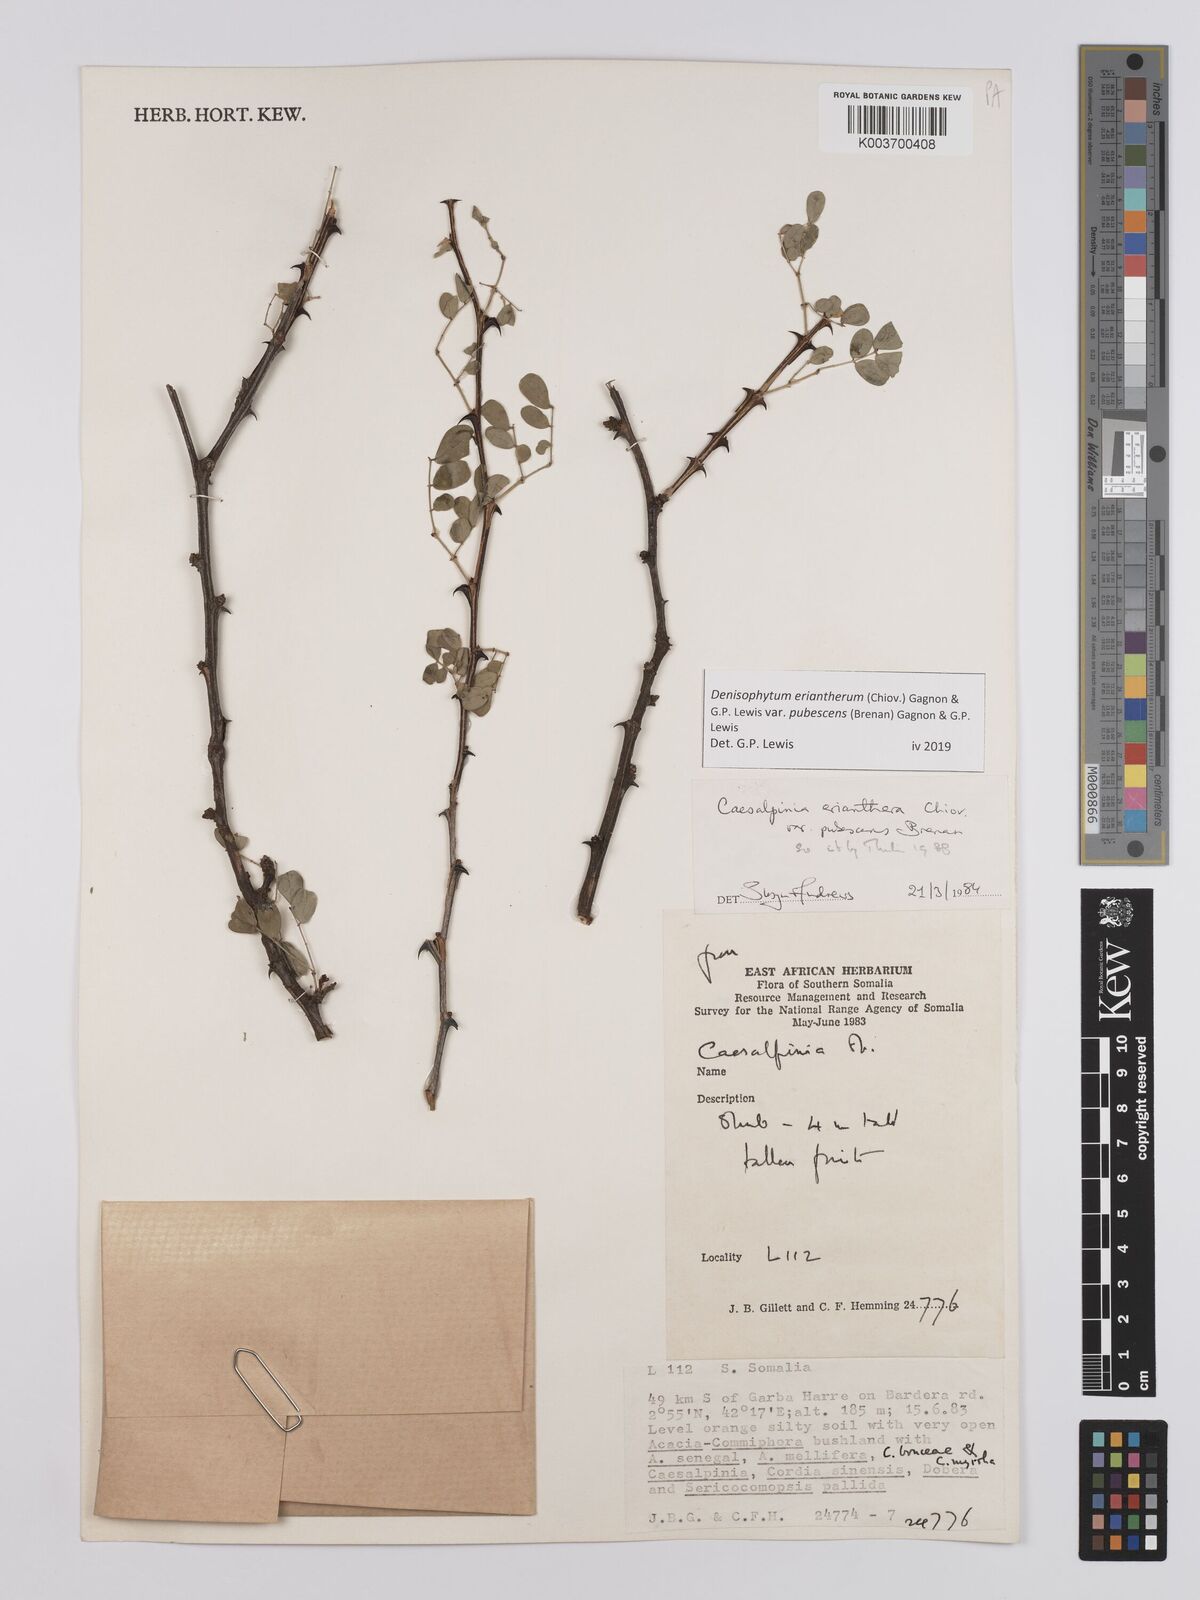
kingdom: Plantae
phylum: Tracheophyta
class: Magnoliopsida
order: Fabales
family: Fabaceae
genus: Denisophytum
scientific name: Denisophytum eriantherum
